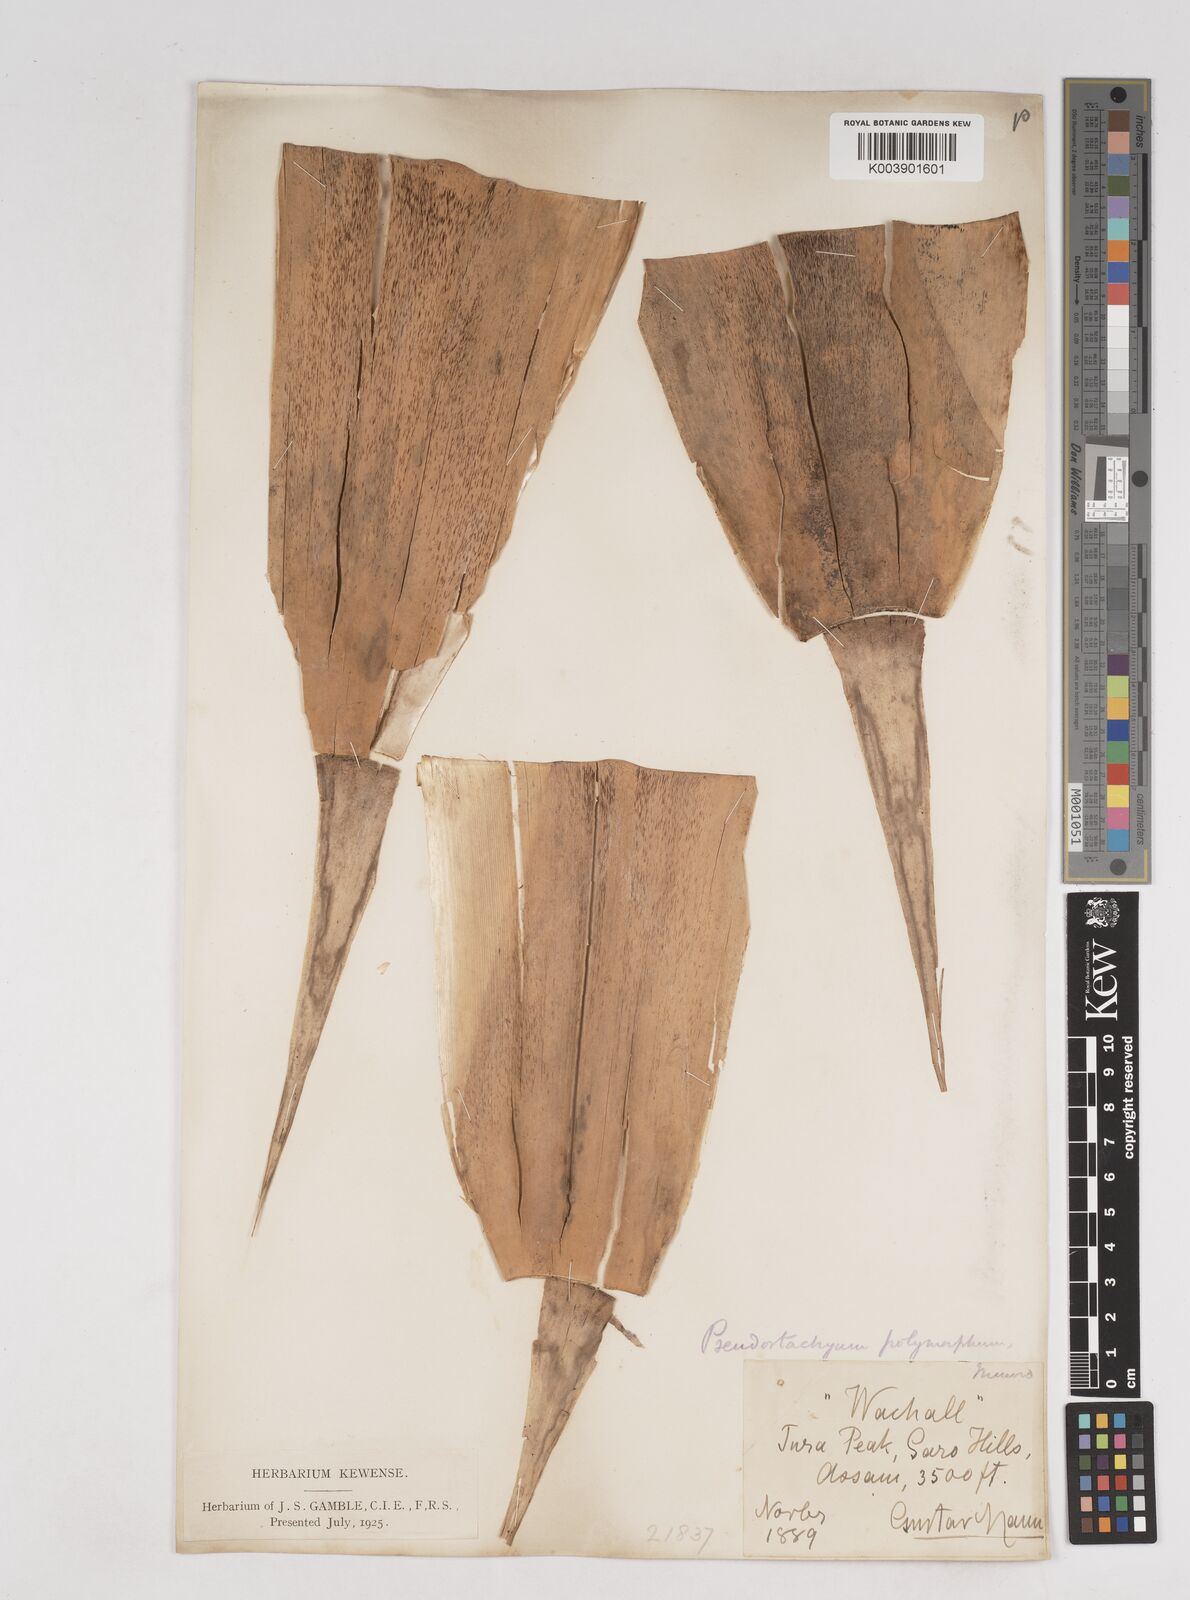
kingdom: Plantae
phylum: Tracheophyta
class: Liliopsida
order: Poales
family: Poaceae
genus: Pseudostachyum
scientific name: Pseudostachyum polymorphum
